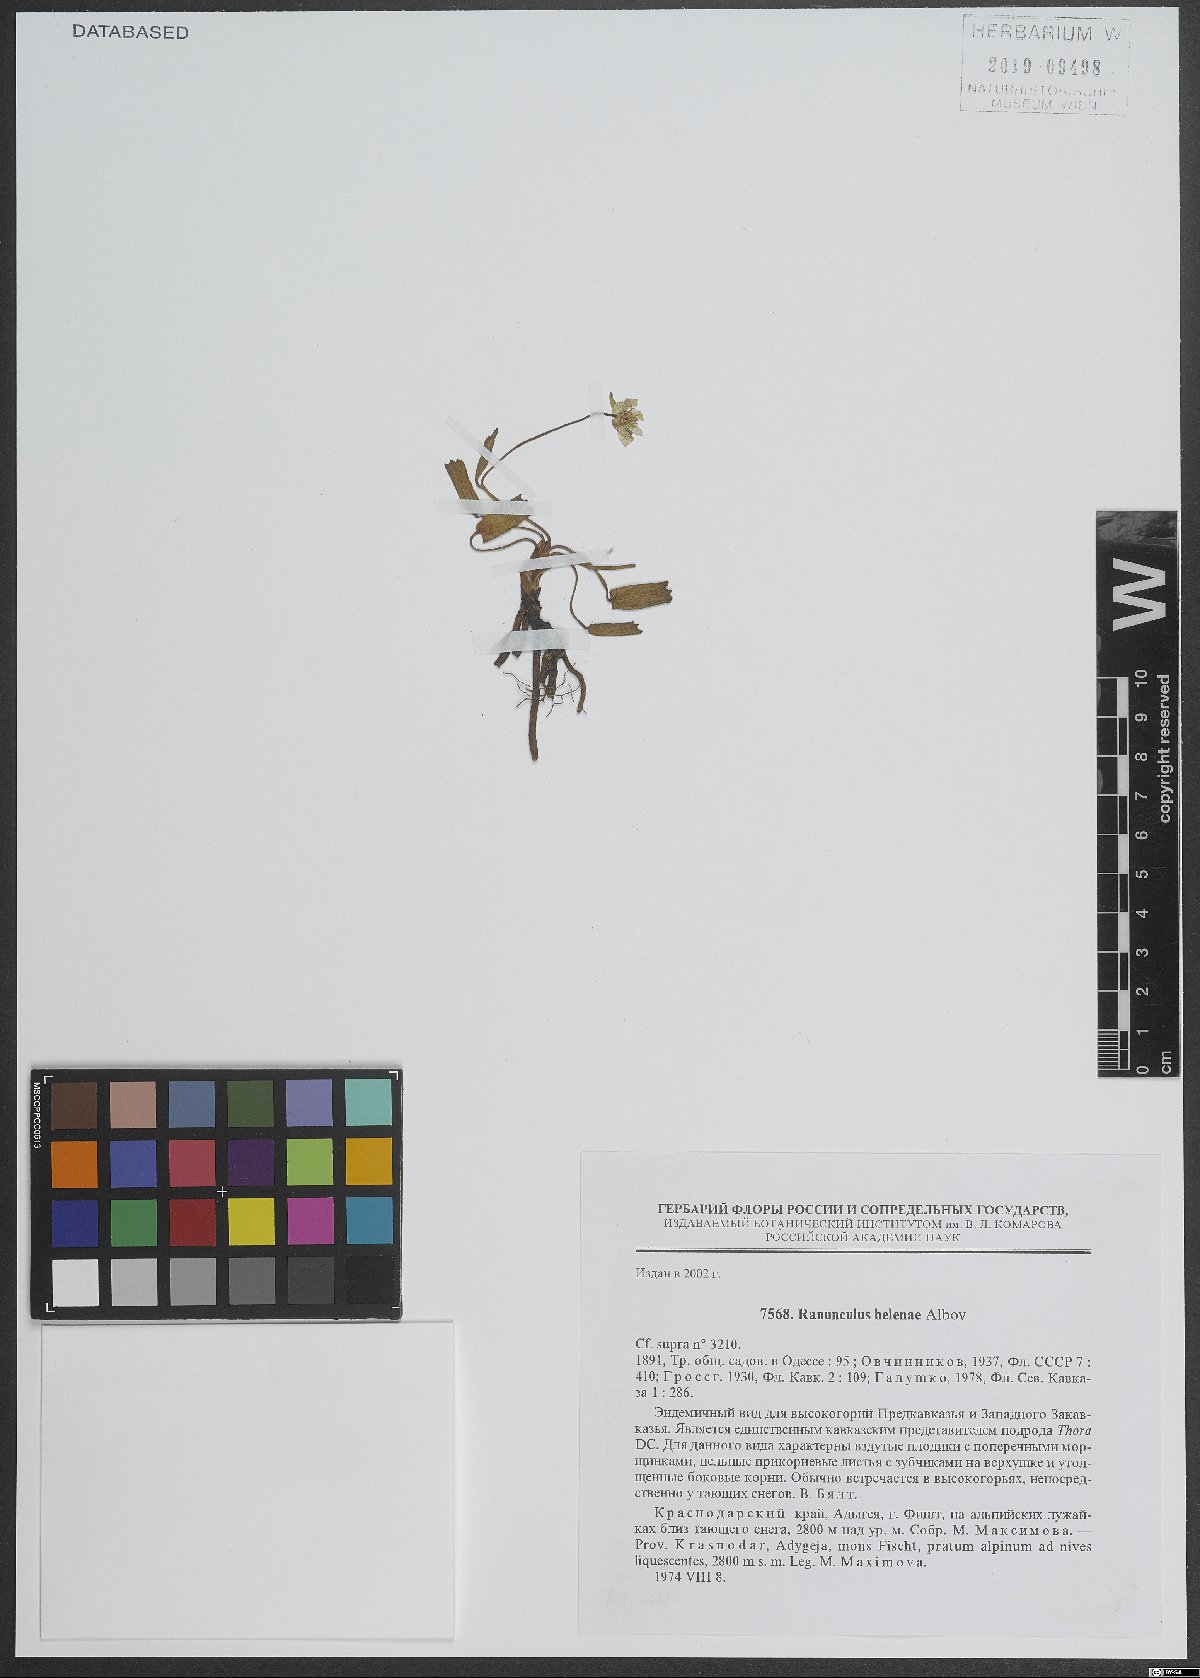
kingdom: Plantae
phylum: Tracheophyta
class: Magnoliopsida
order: Ranunculales
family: Ranunculaceae
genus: Ranunculus
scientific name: Ranunculus helenae
